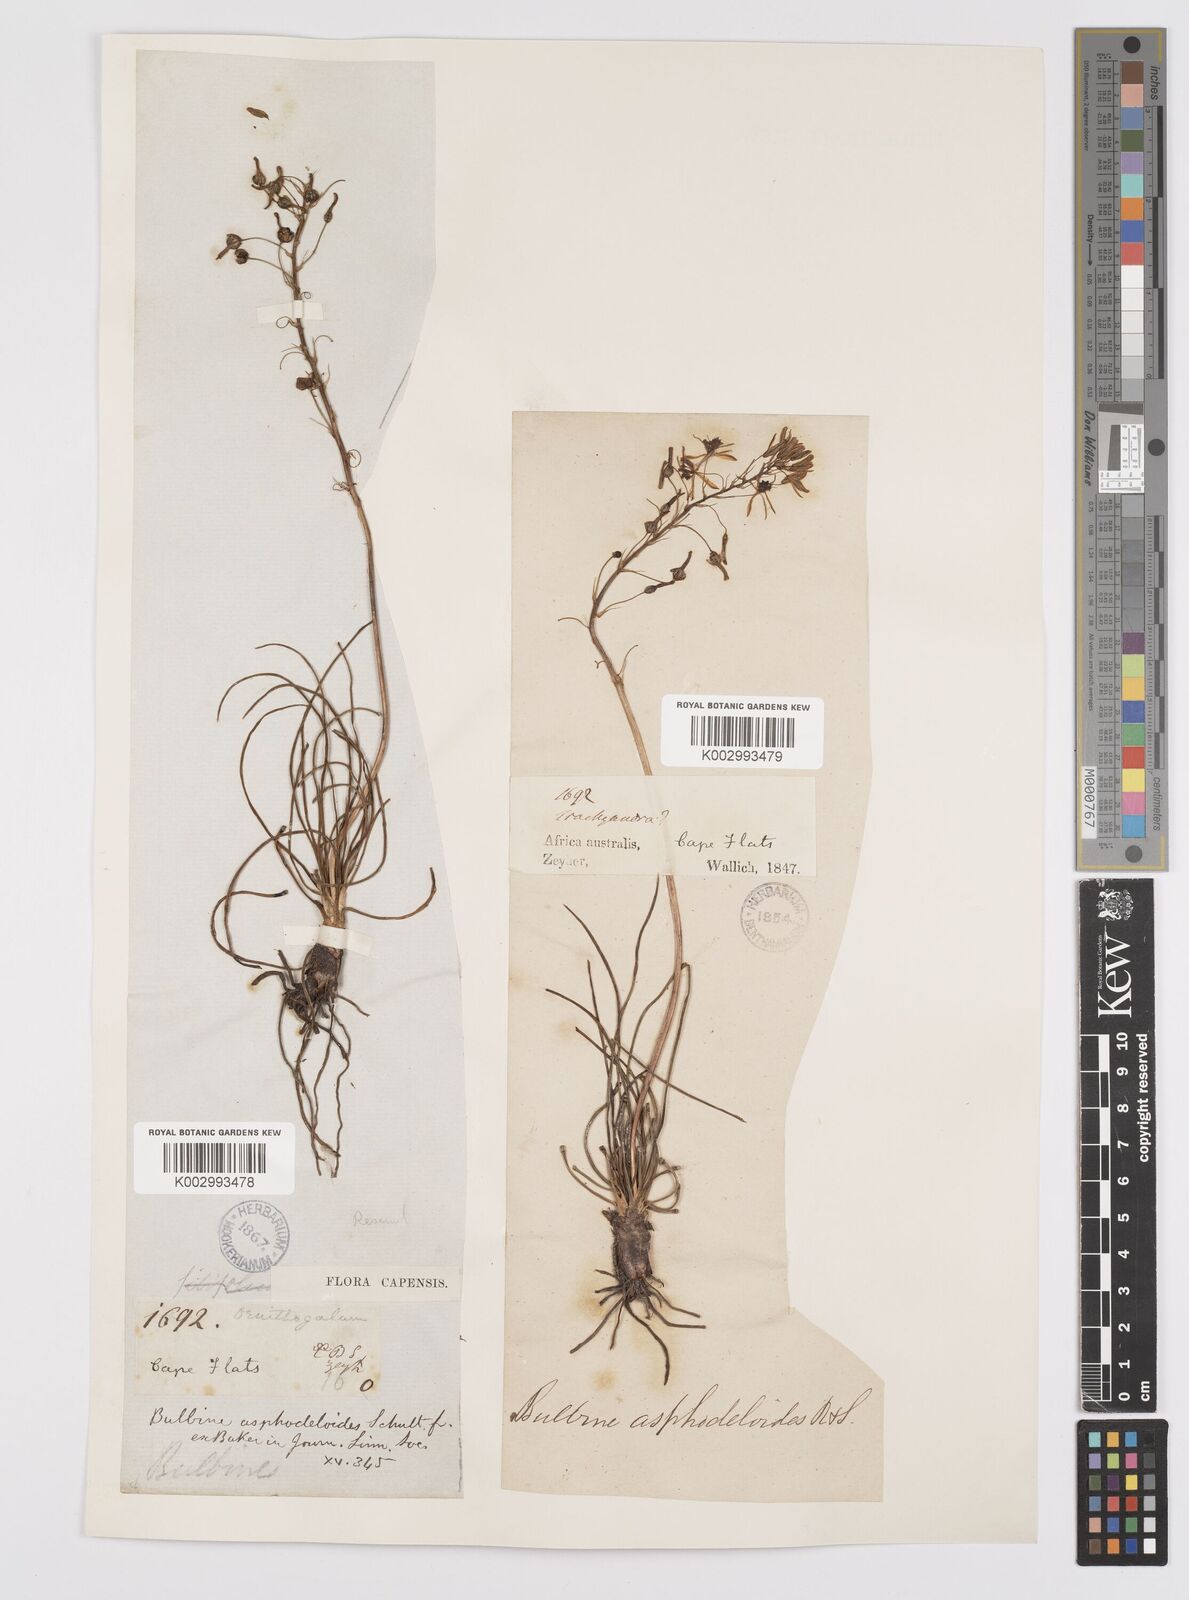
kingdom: Plantae
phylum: Tracheophyta
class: Liliopsida
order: Asparagales
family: Asphodelaceae
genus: Bulbine
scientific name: Bulbine lagopus
